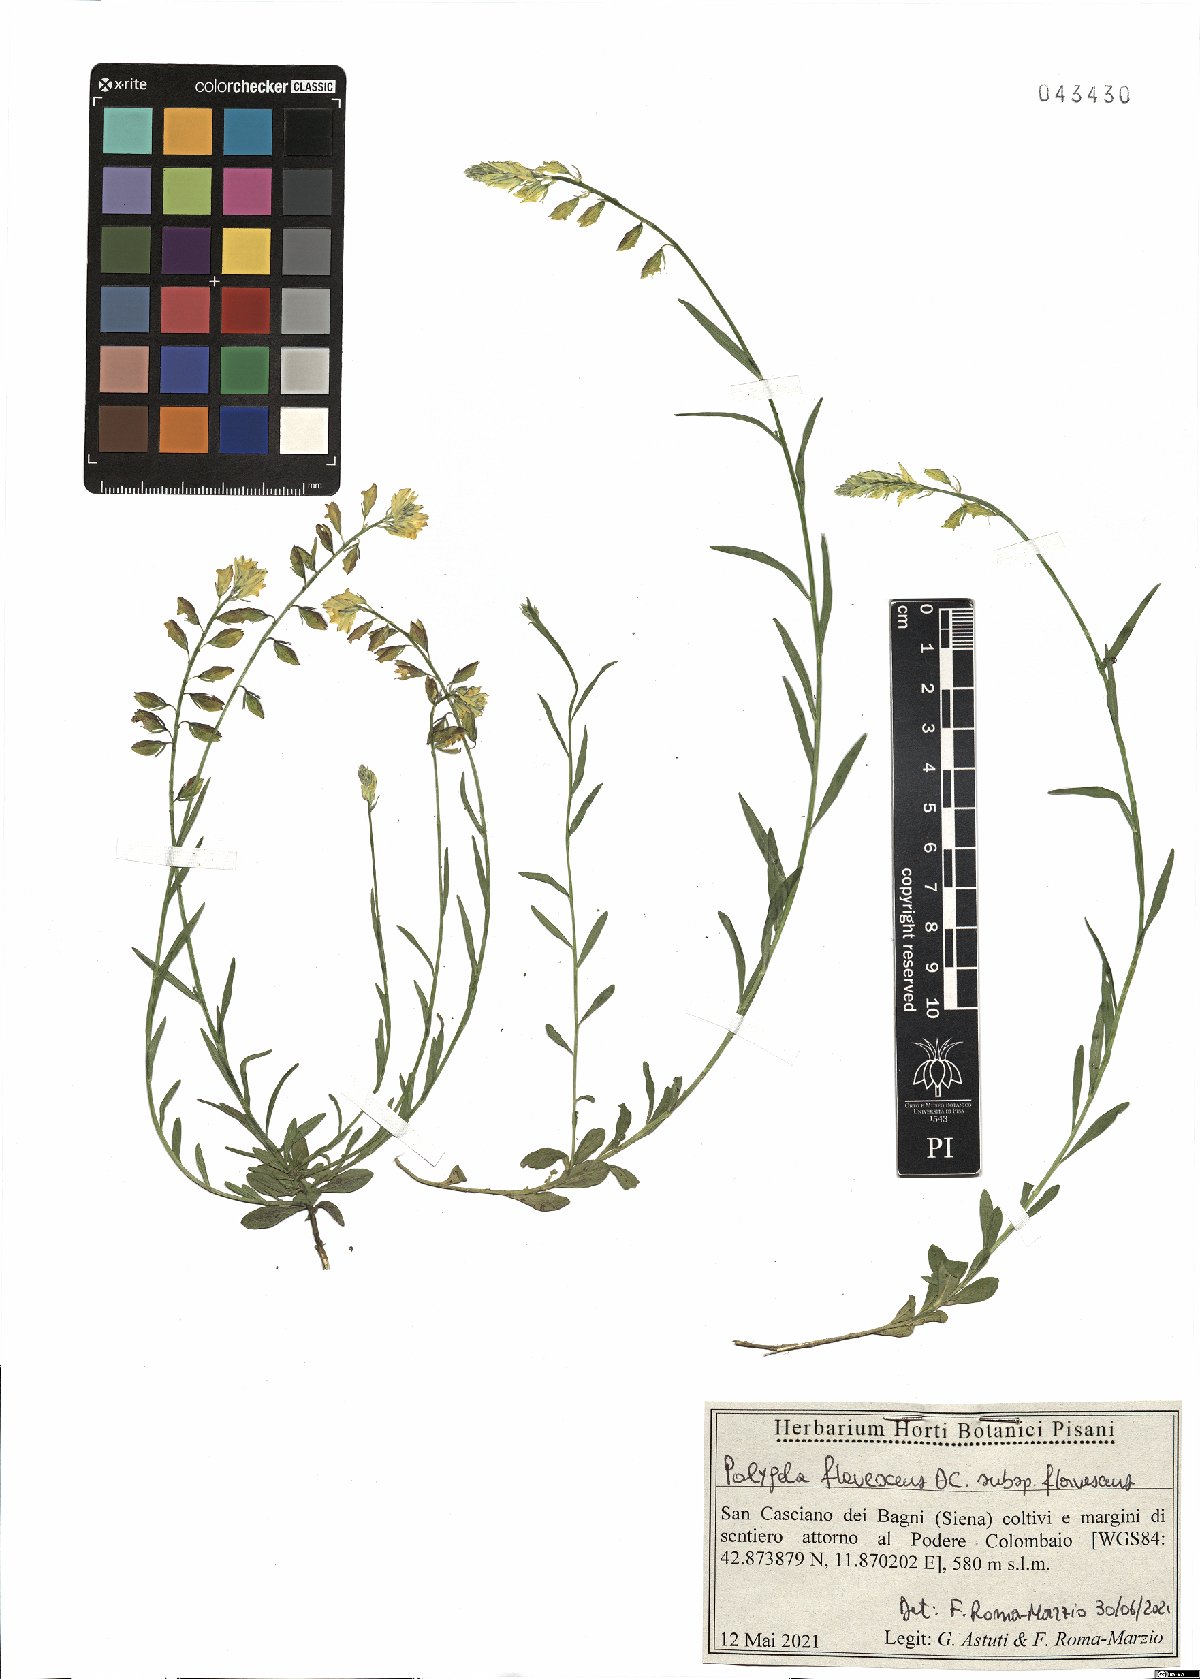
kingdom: Plantae
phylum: Tracheophyta
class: Magnoliopsida
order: Fabales
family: Polygalaceae
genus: Polygala
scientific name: Polygala flavescens
